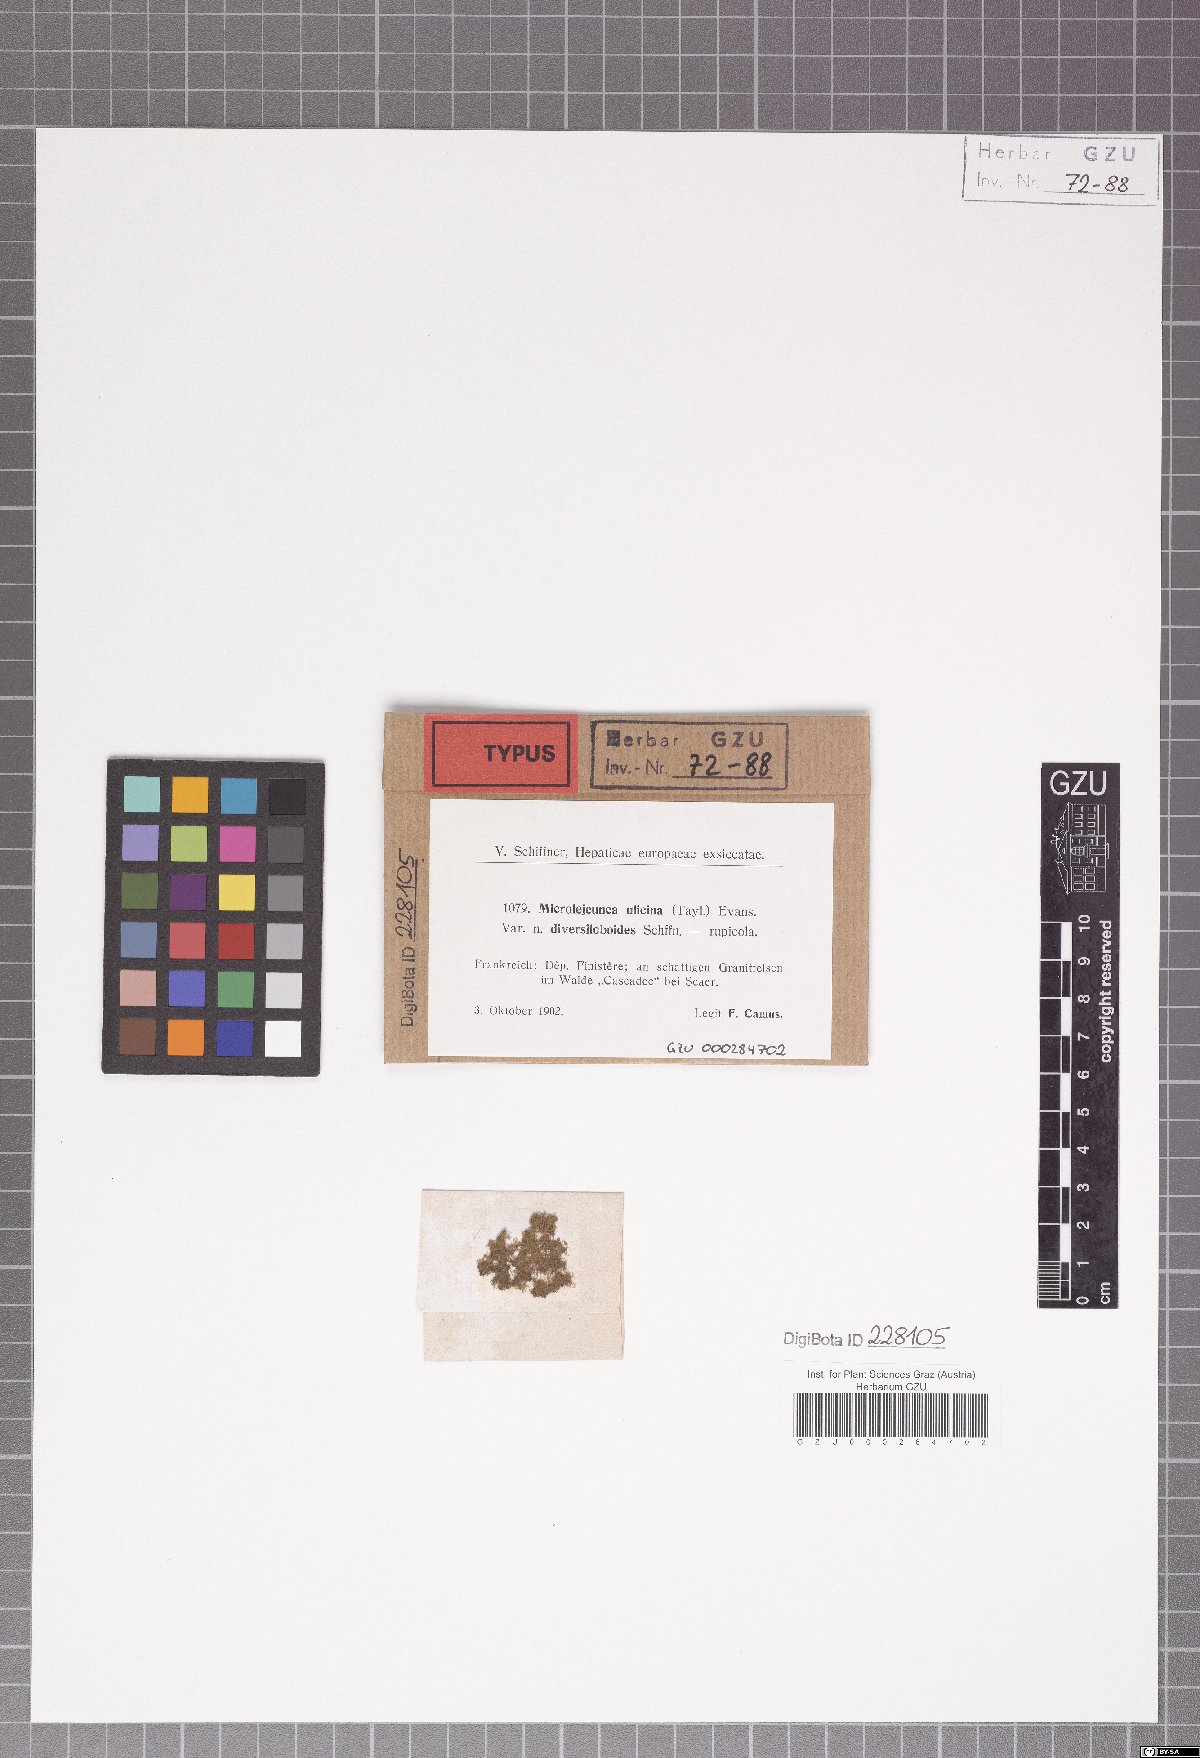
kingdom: Plantae
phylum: Marchantiophyta
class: Jungermanniopsida
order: Porellales
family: Lejeuneaceae
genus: Microlejeunea
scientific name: Microlejeunea ulicina
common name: Fairy beads
